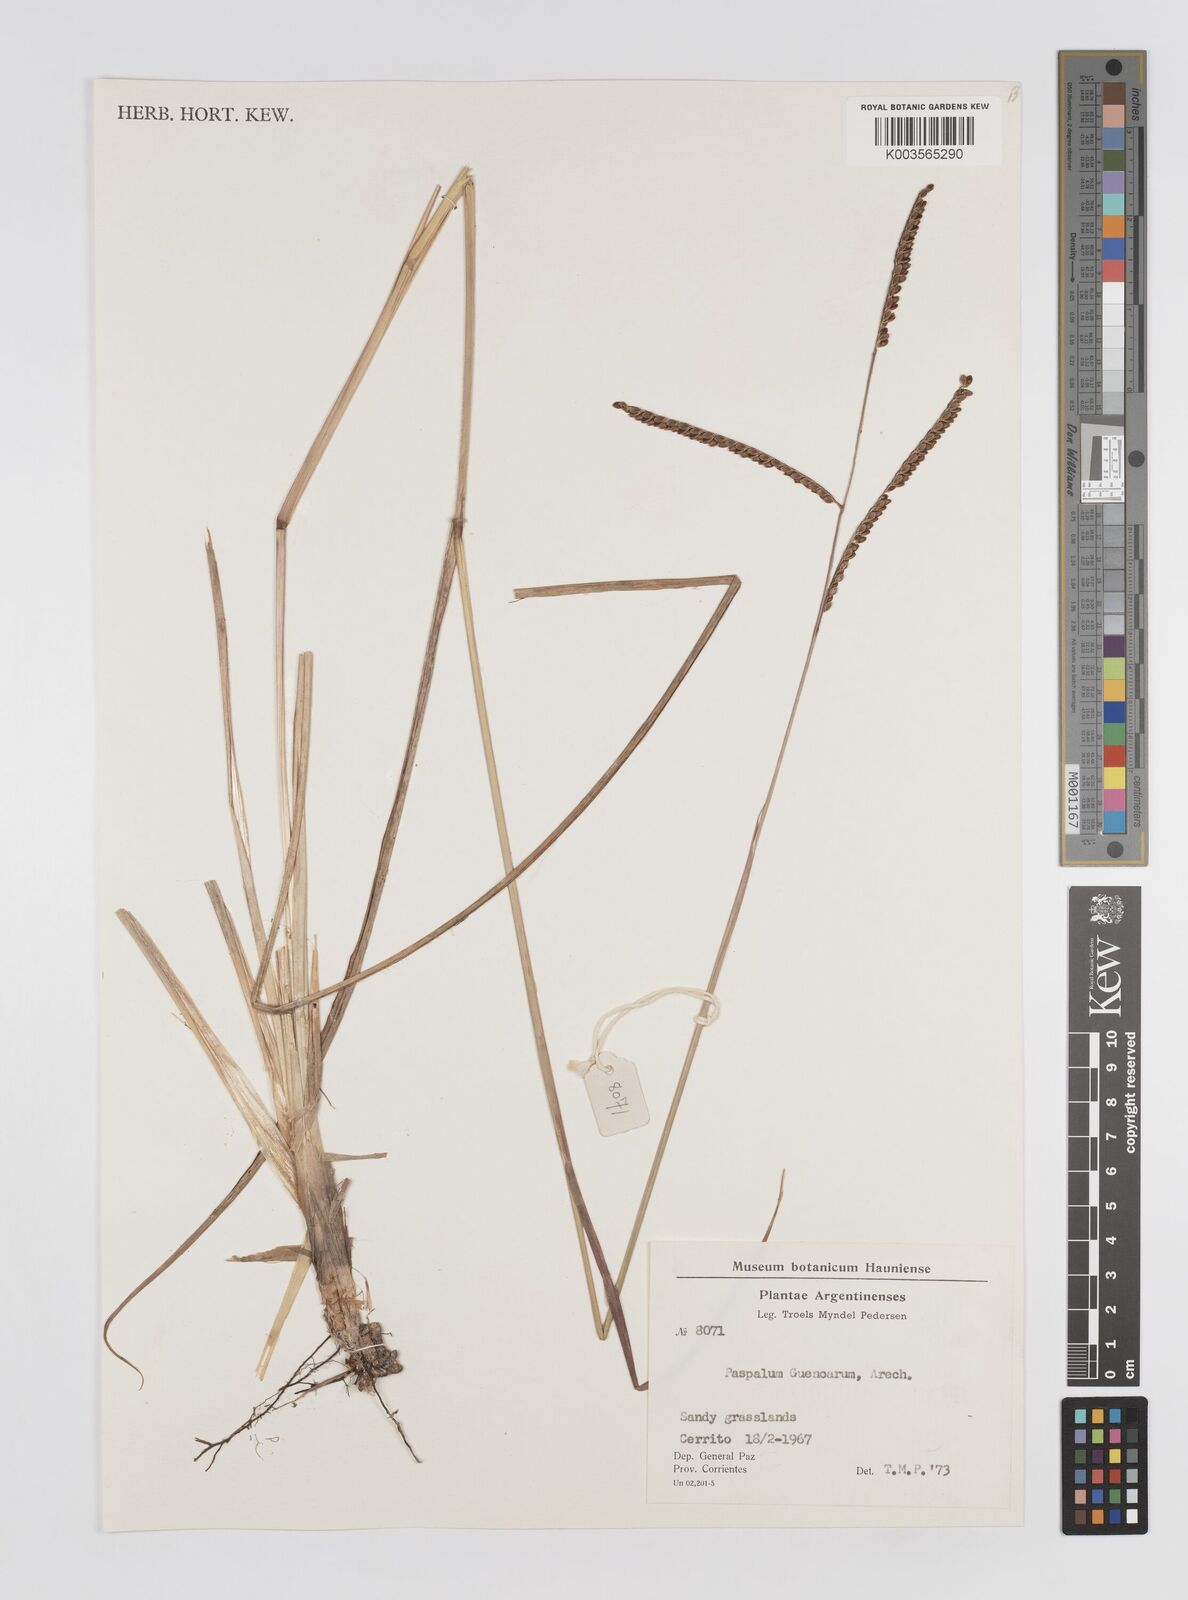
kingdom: Plantae
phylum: Tracheophyta
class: Liliopsida
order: Poales
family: Poaceae
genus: Paspalum
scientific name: Paspalum guenoarum
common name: Wintergreen paspalum
